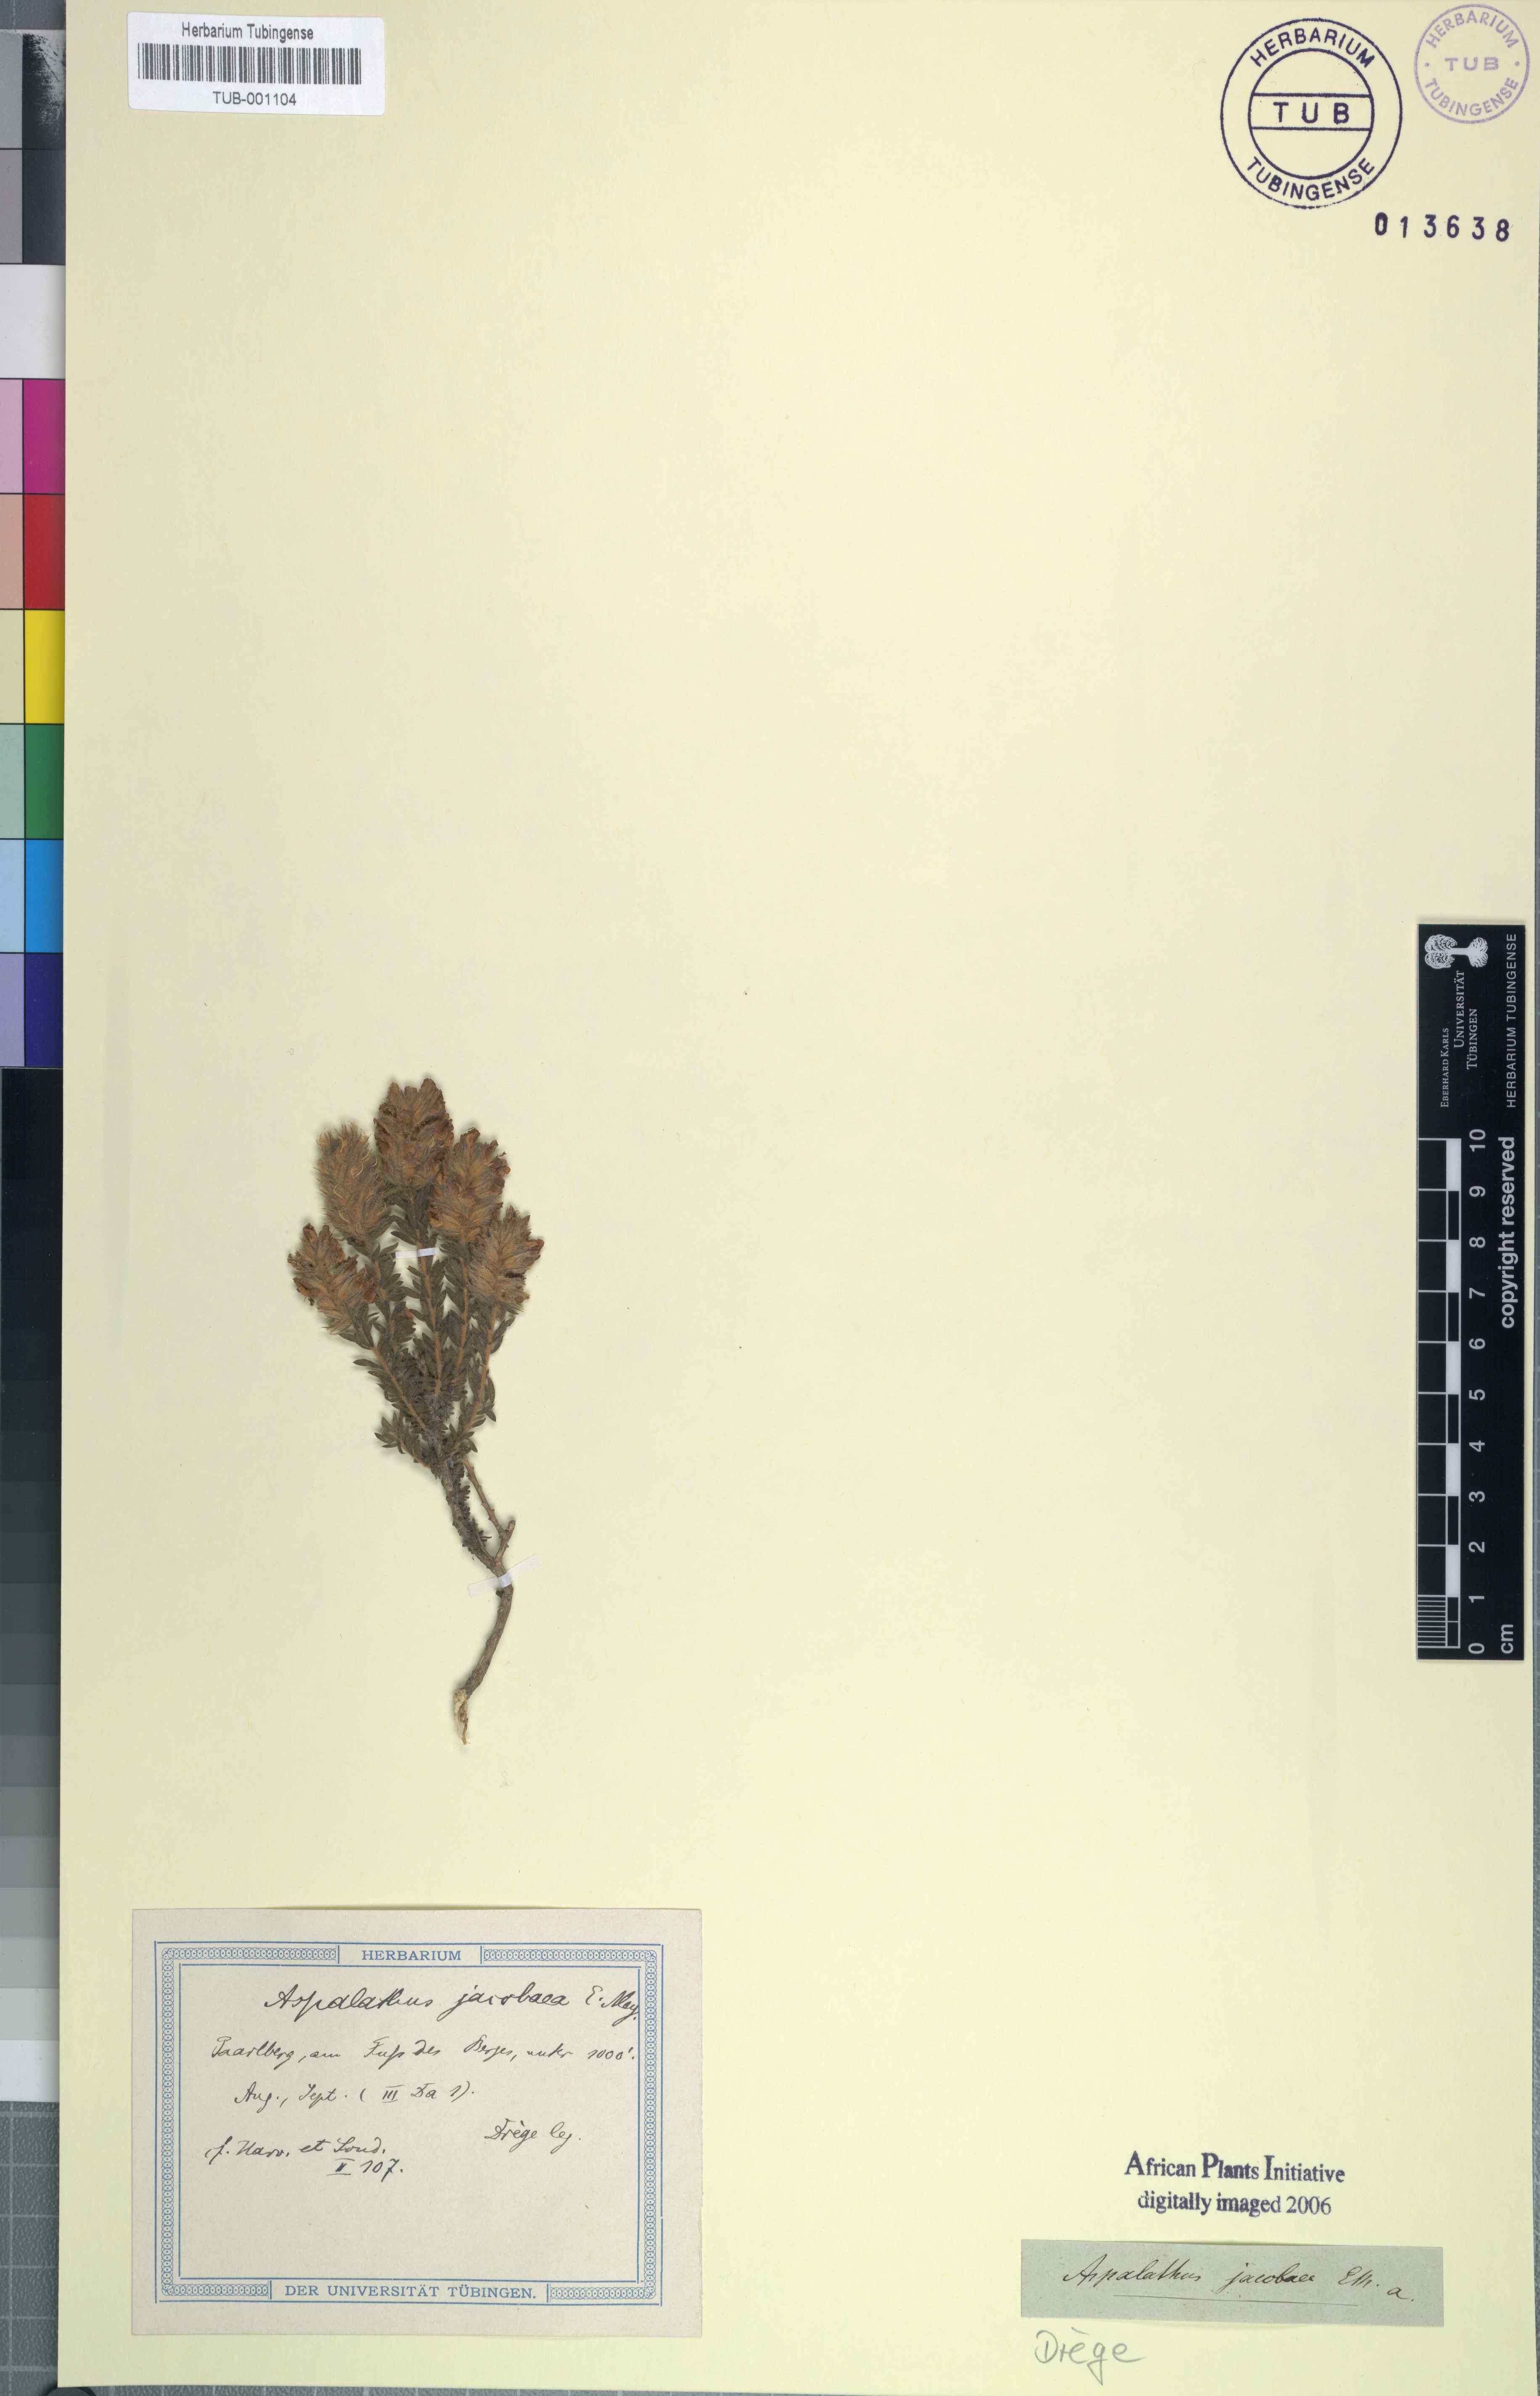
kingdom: Plantae
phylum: Tracheophyta
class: Magnoliopsida
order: Fabales
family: Fabaceae
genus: Aspalathus
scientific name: Aspalathus quinquefolia
